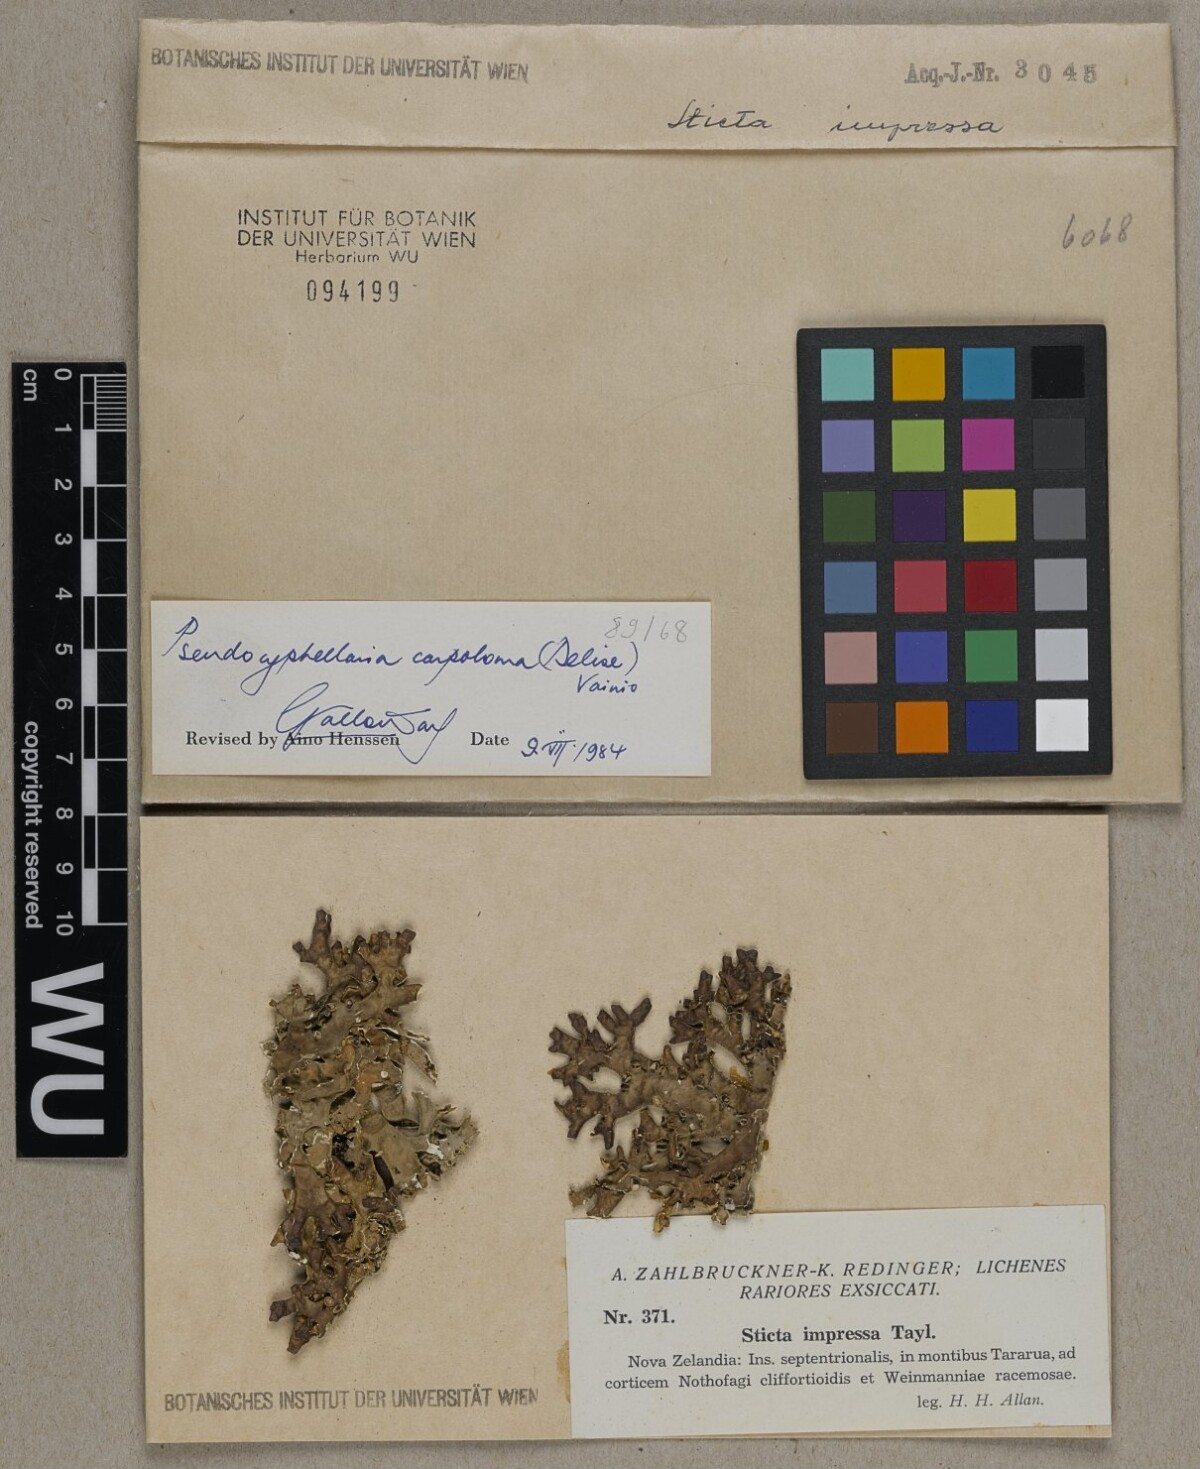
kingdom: Fungi
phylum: Ascomycota
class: Lecanoromycetes
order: Peltigerales
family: Lobariaceae
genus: Pseudocyphellaria
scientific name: Pseudocyphellaria carpoloma
